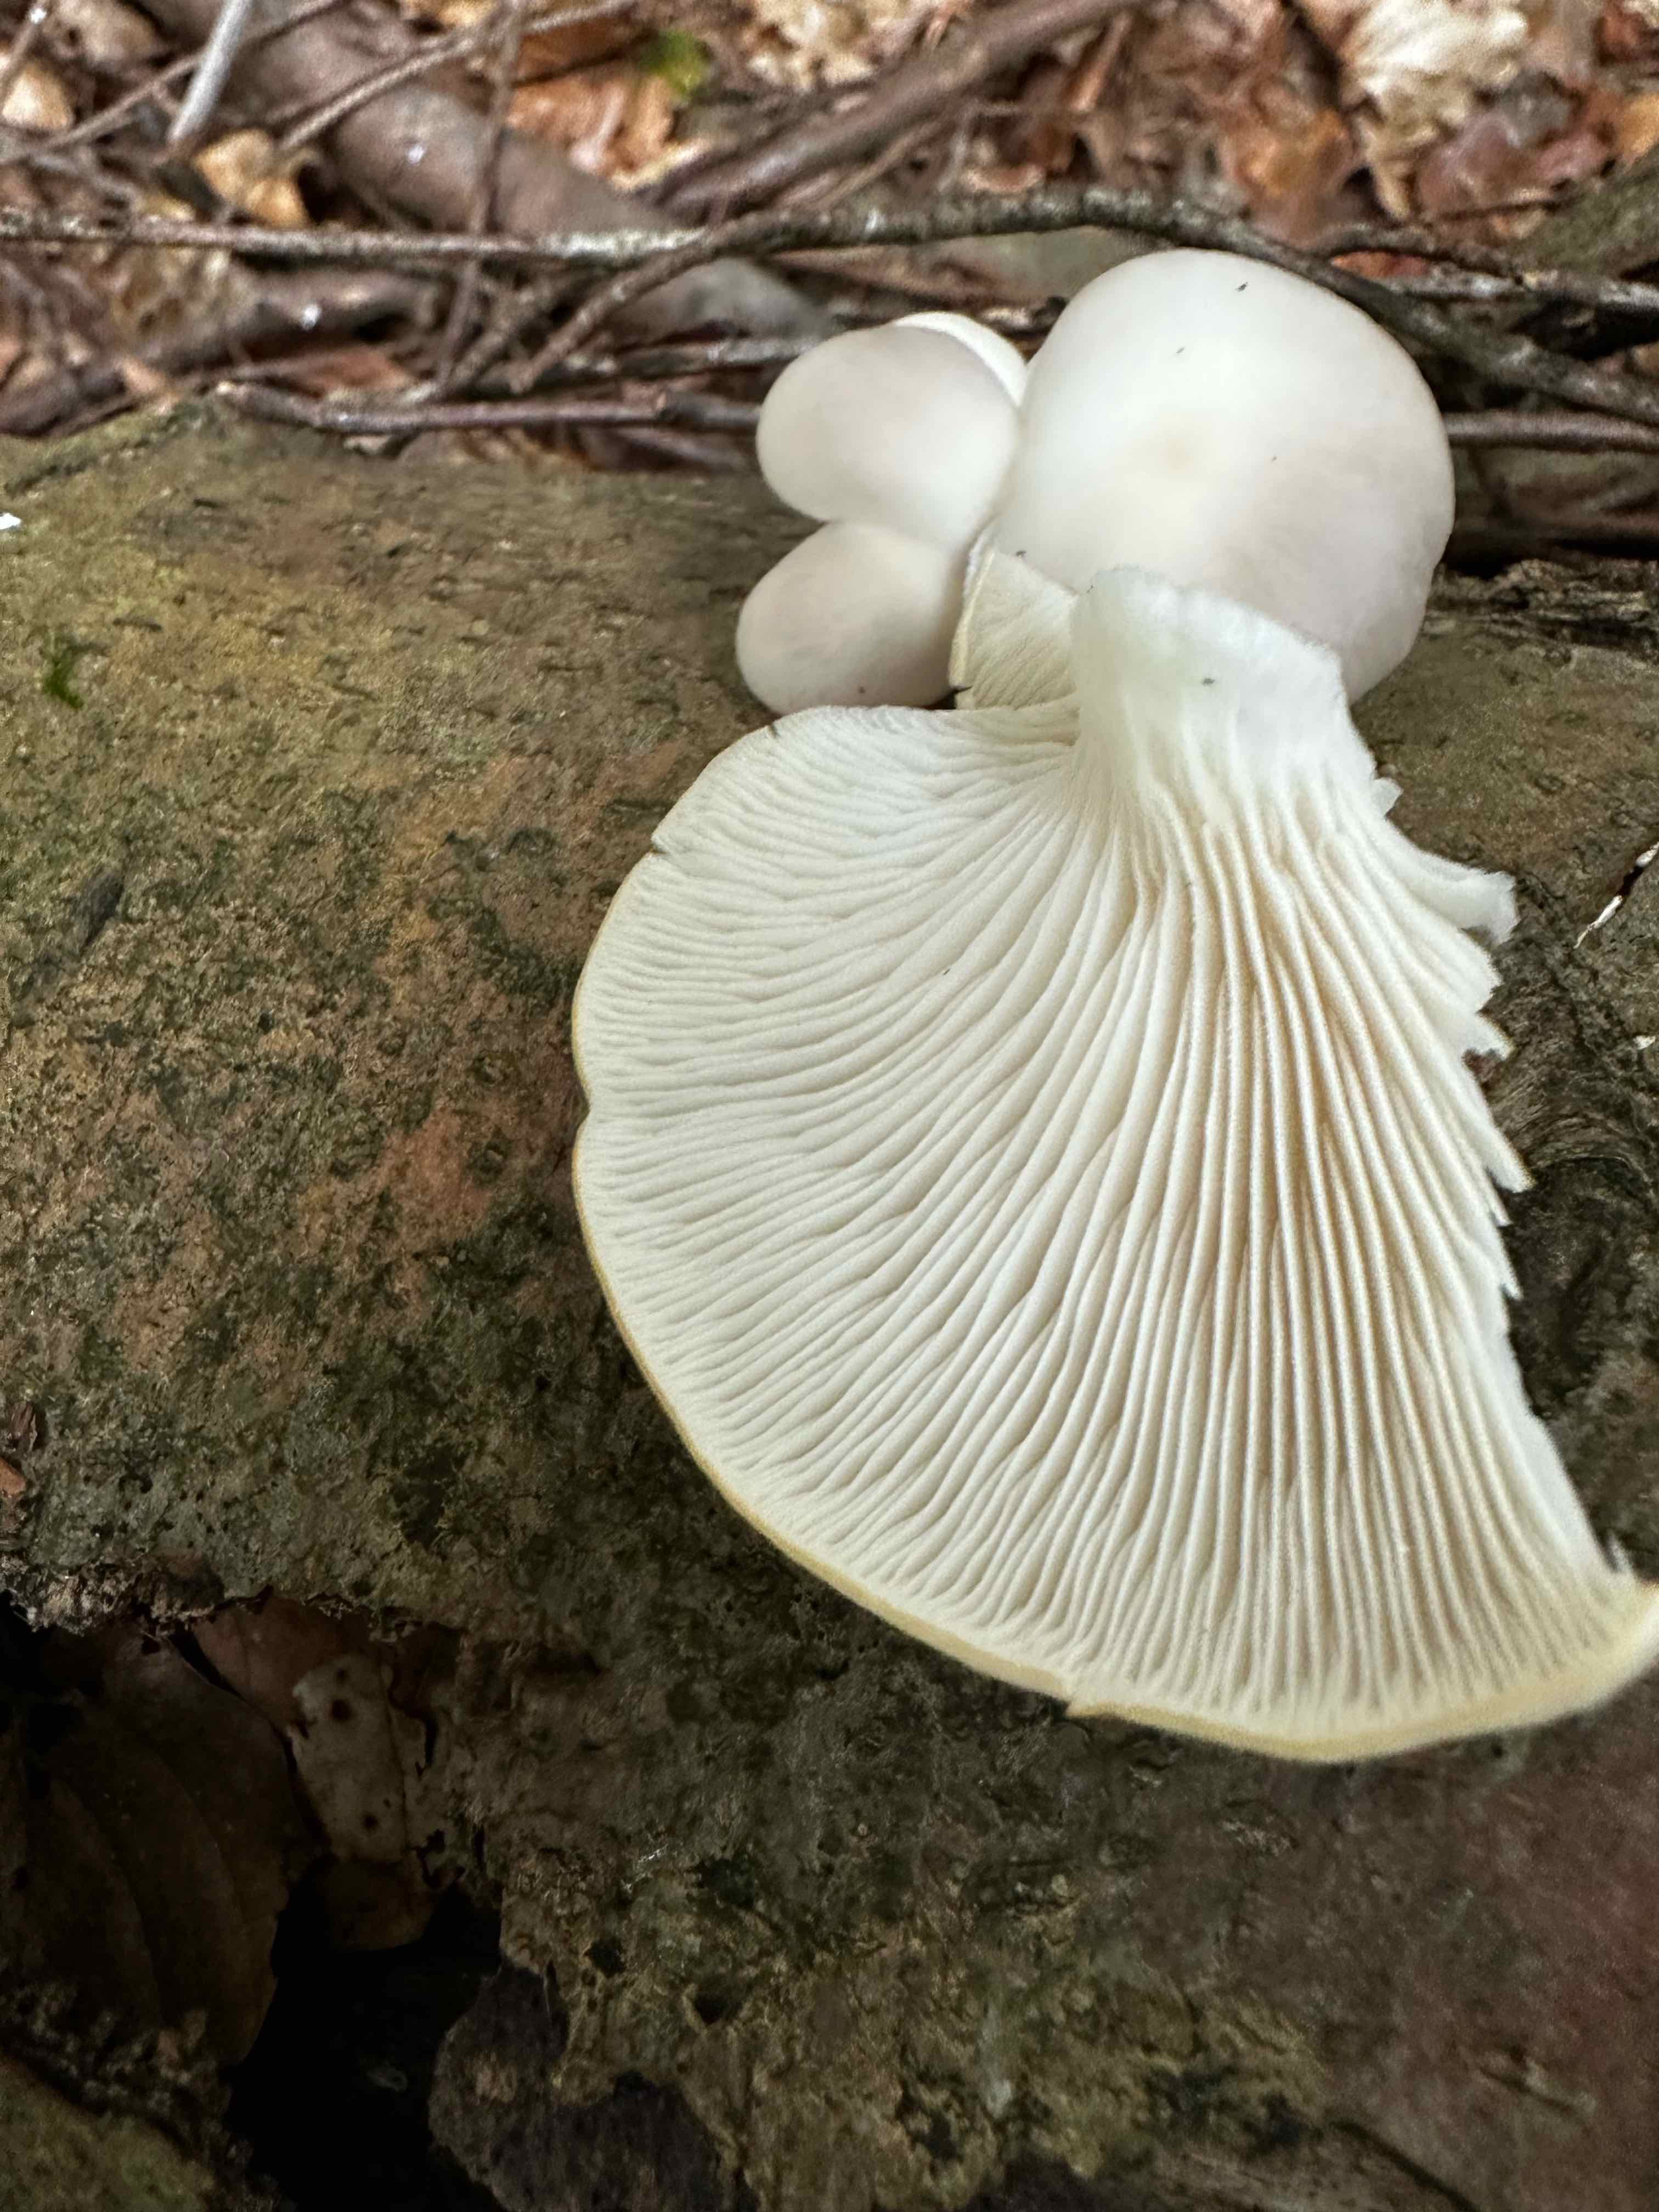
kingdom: Fungi
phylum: Basidiomycota
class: Agaricomycetes
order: Agaricales
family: Pleurotaceae
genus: Pleurotus
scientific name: Pleurotus pulmonarius
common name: sommer-østershat
